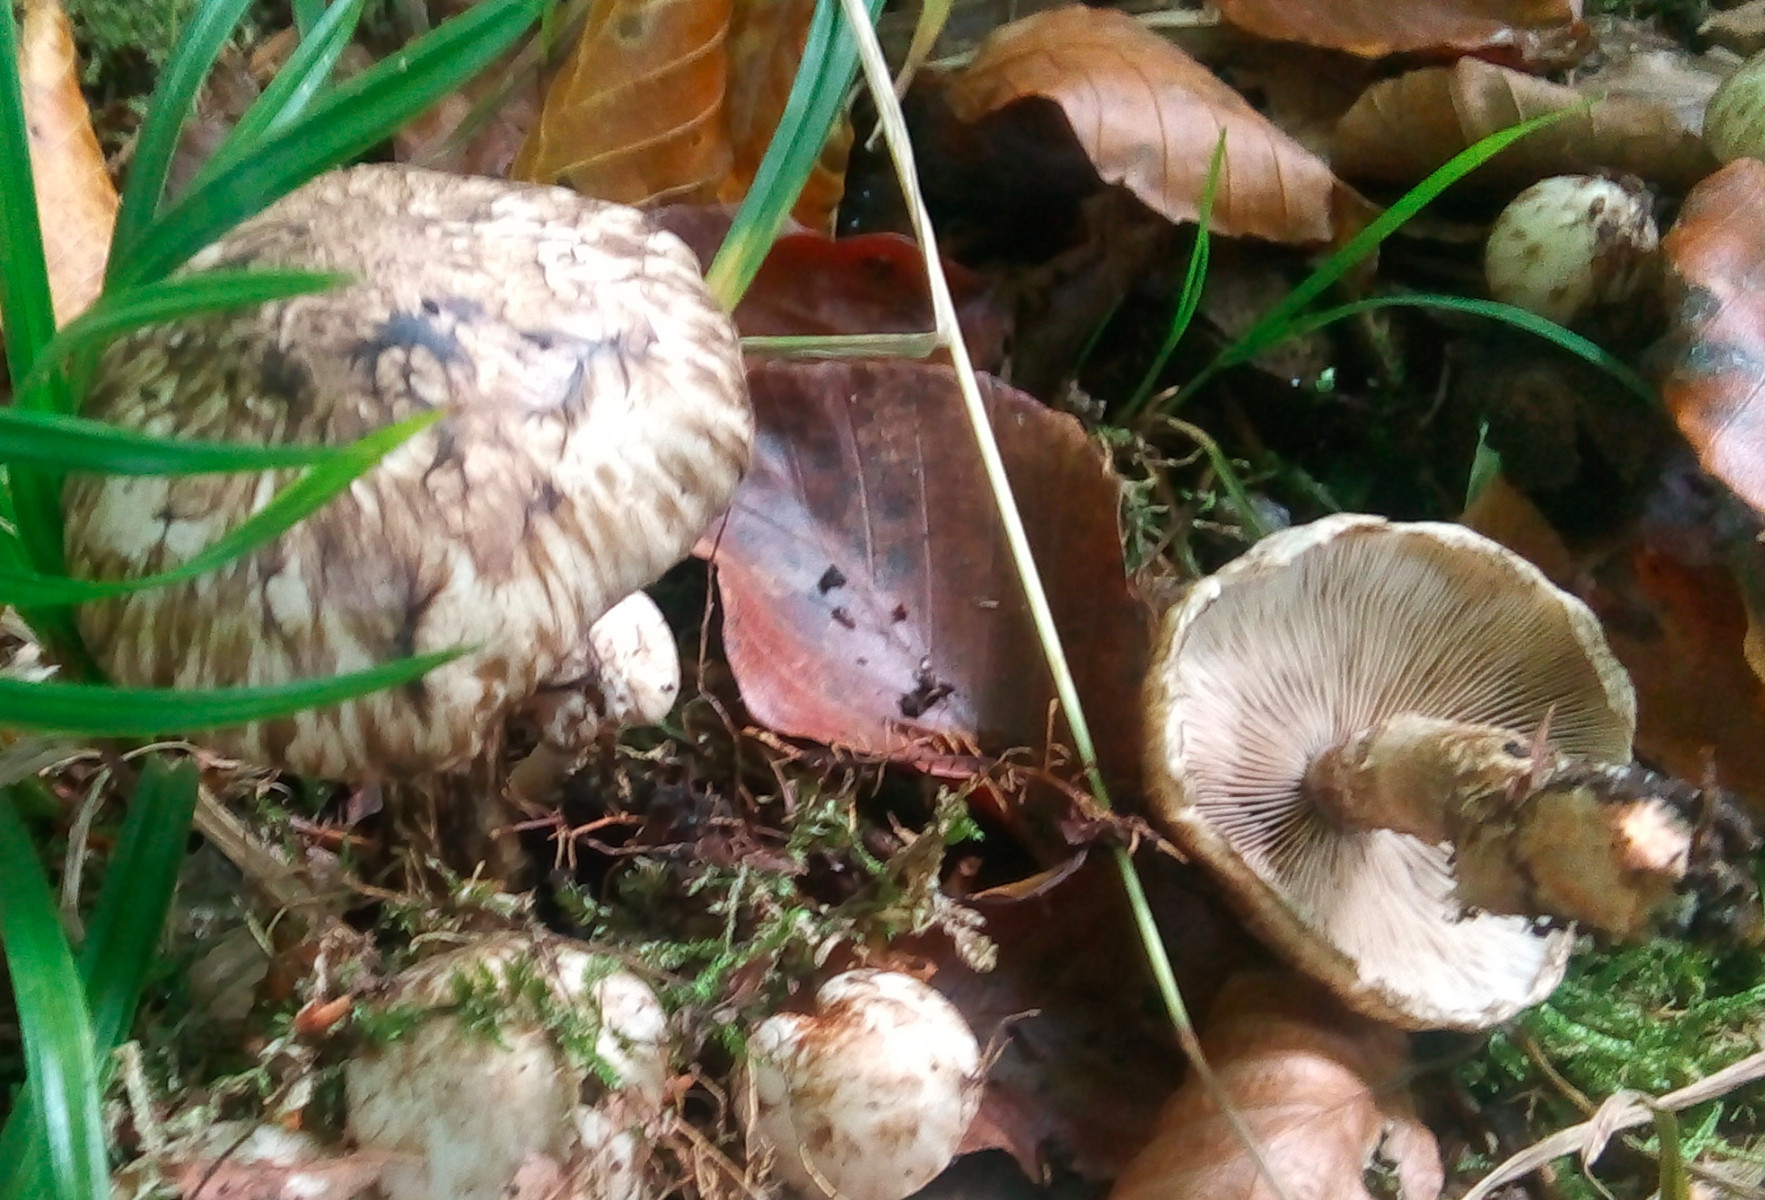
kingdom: Fungi
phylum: Basidiomycota
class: Agaricomycetes
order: Agaricales
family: Psathyrellaceae
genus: Psathyrella
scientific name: Psathyrella maculata
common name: sortskællet mørkhat
